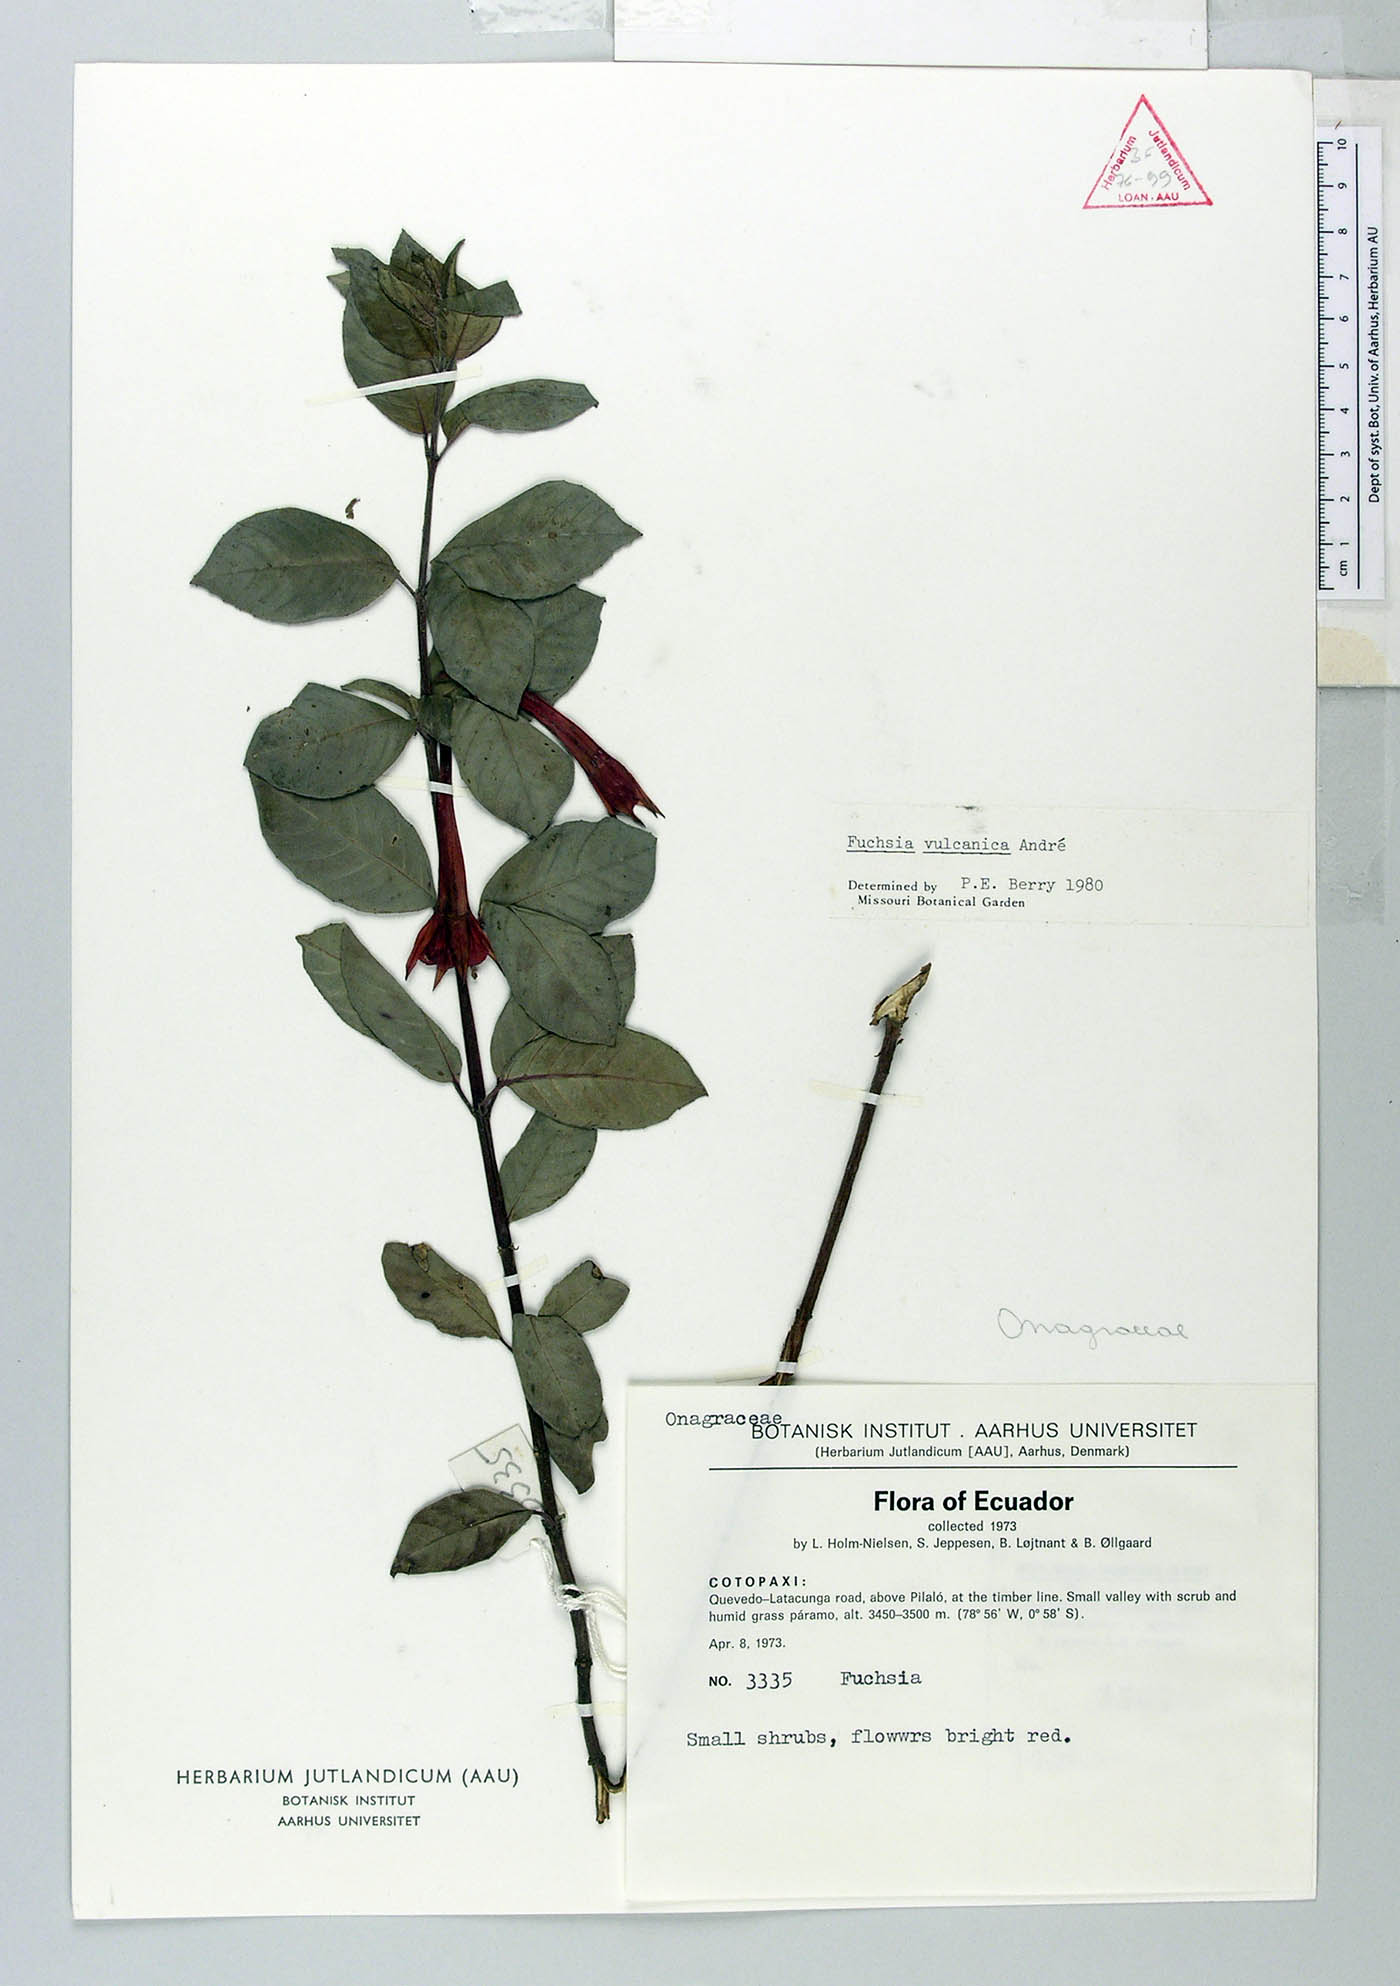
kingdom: Plantae
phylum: Tracheophyta
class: Magnoliopsida
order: Myrtales
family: Onagraceae
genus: Fuchsia
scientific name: Fuchsia vulcanica
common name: Volcan's fuchsia
